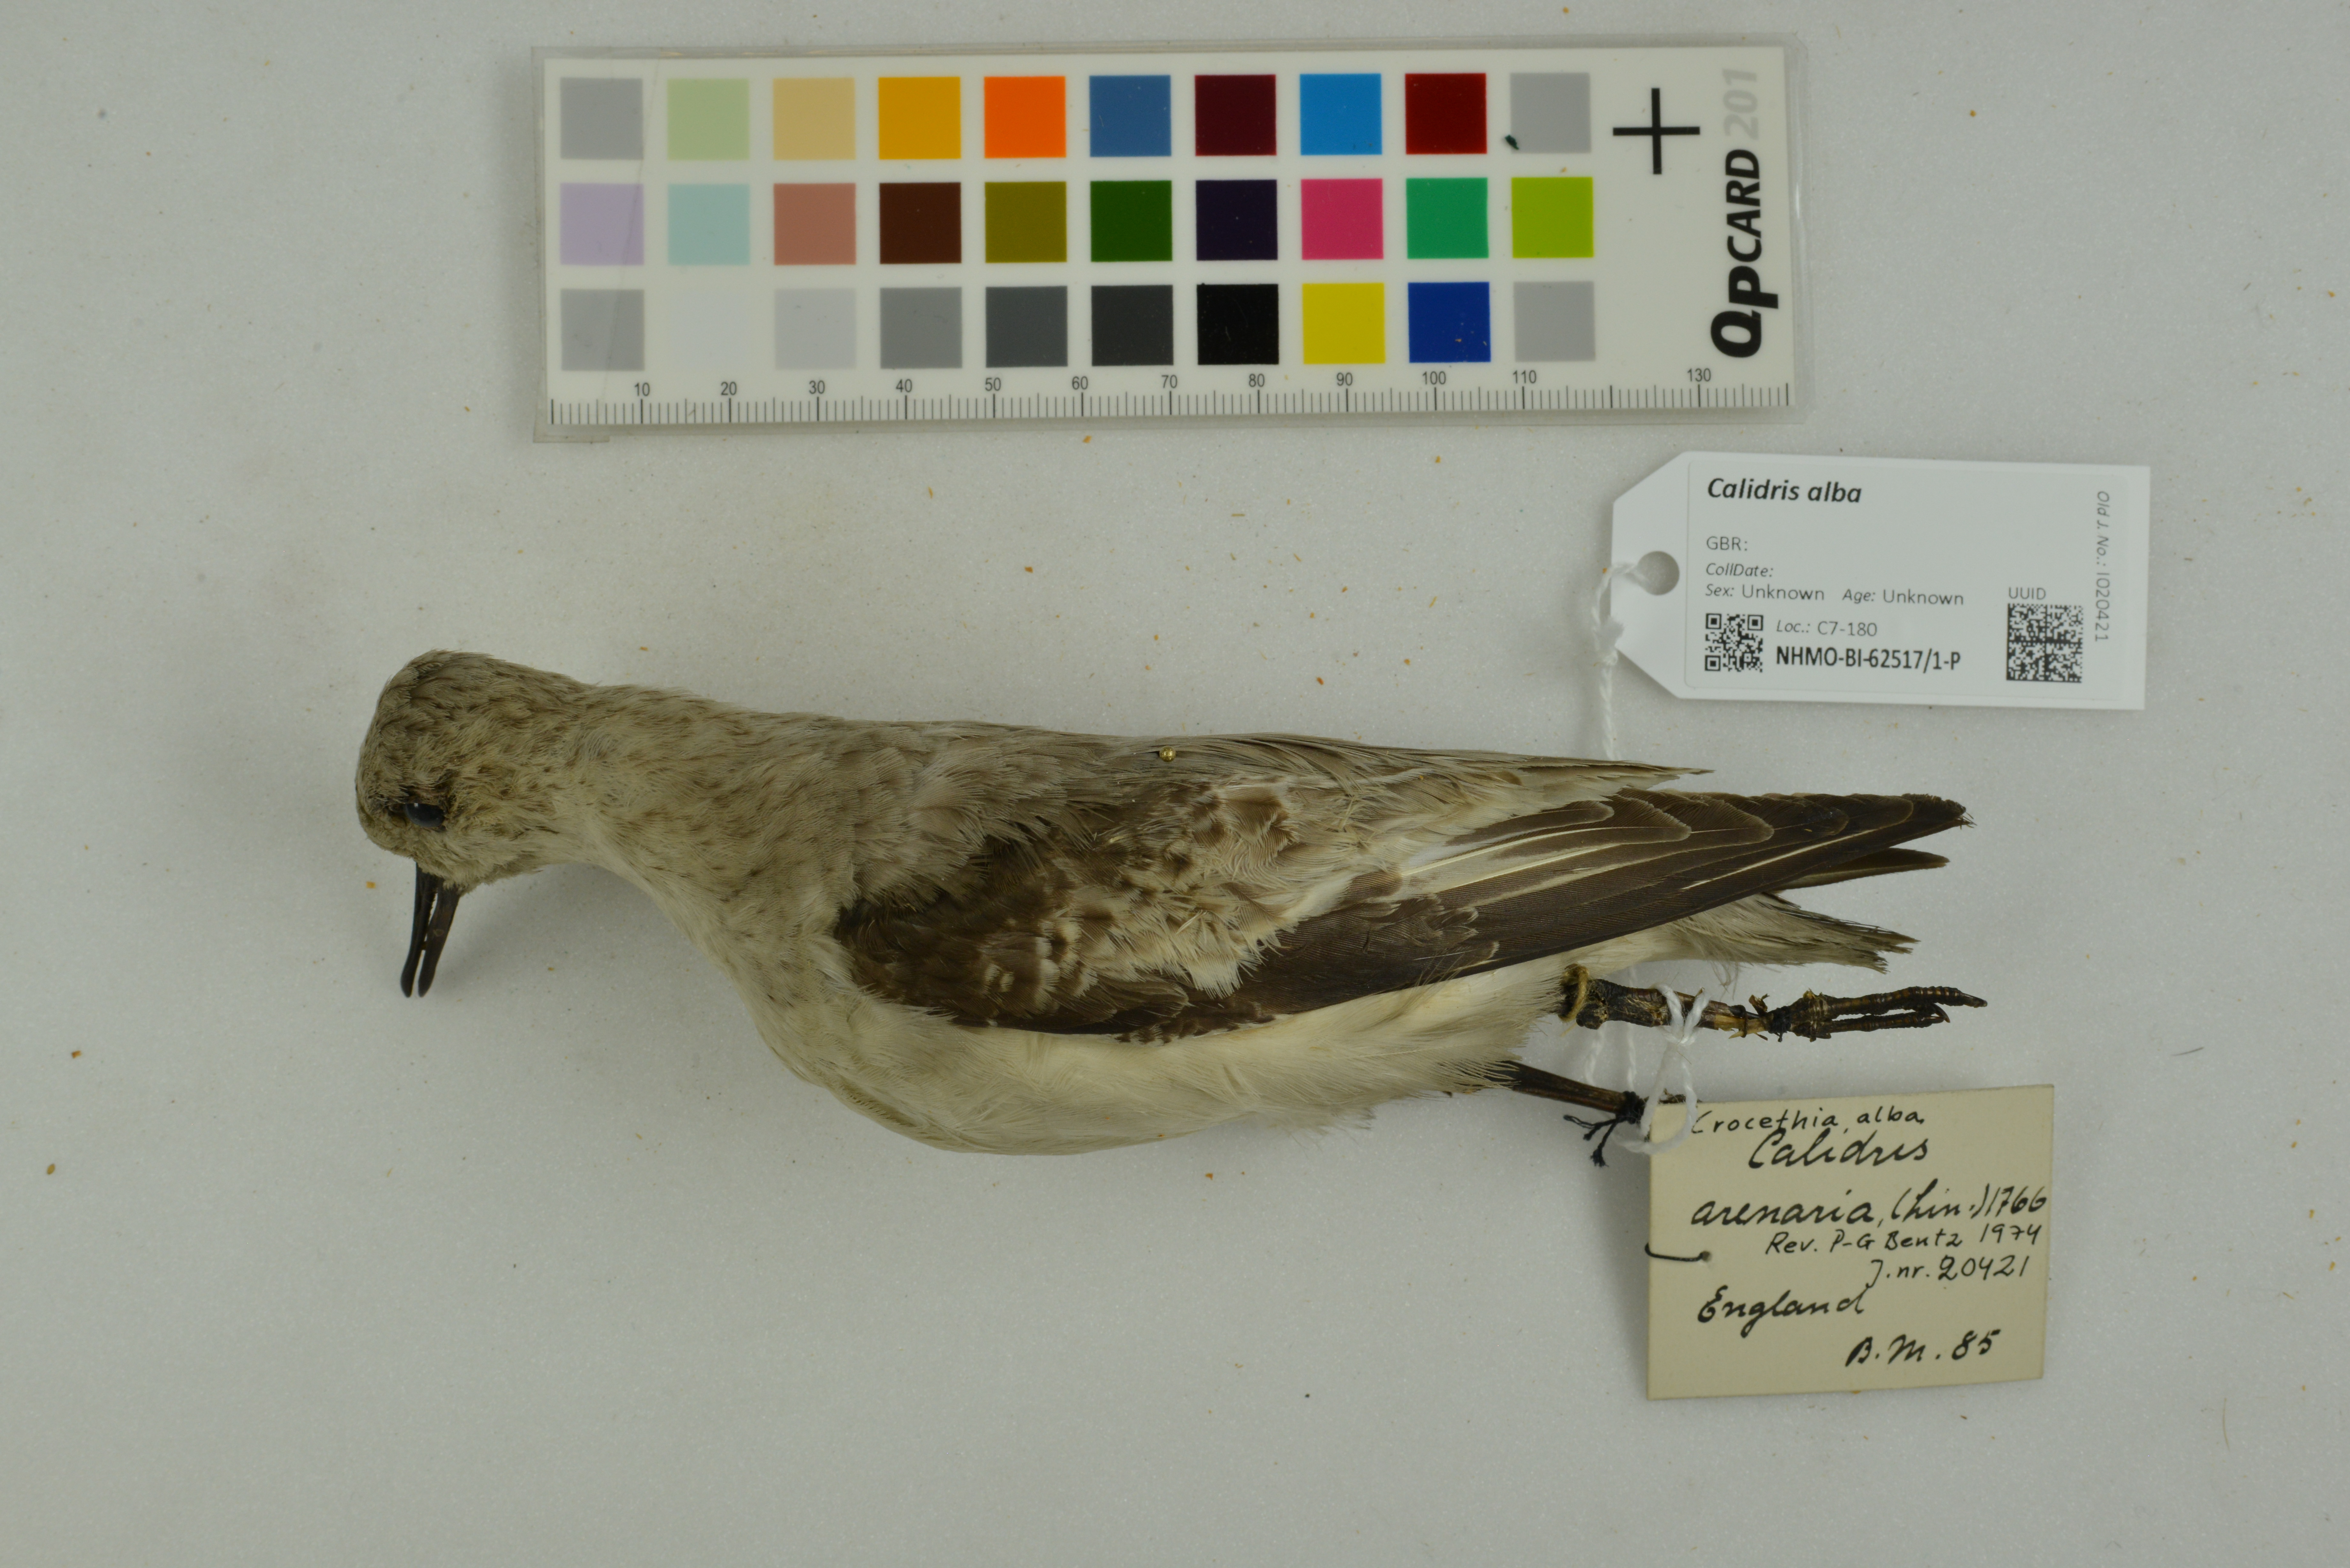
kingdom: Animalia
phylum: Chordata
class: Aves
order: Charadriiformes
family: Scolopacidae
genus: Calidris
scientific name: Calidris alba
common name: Sanderling
